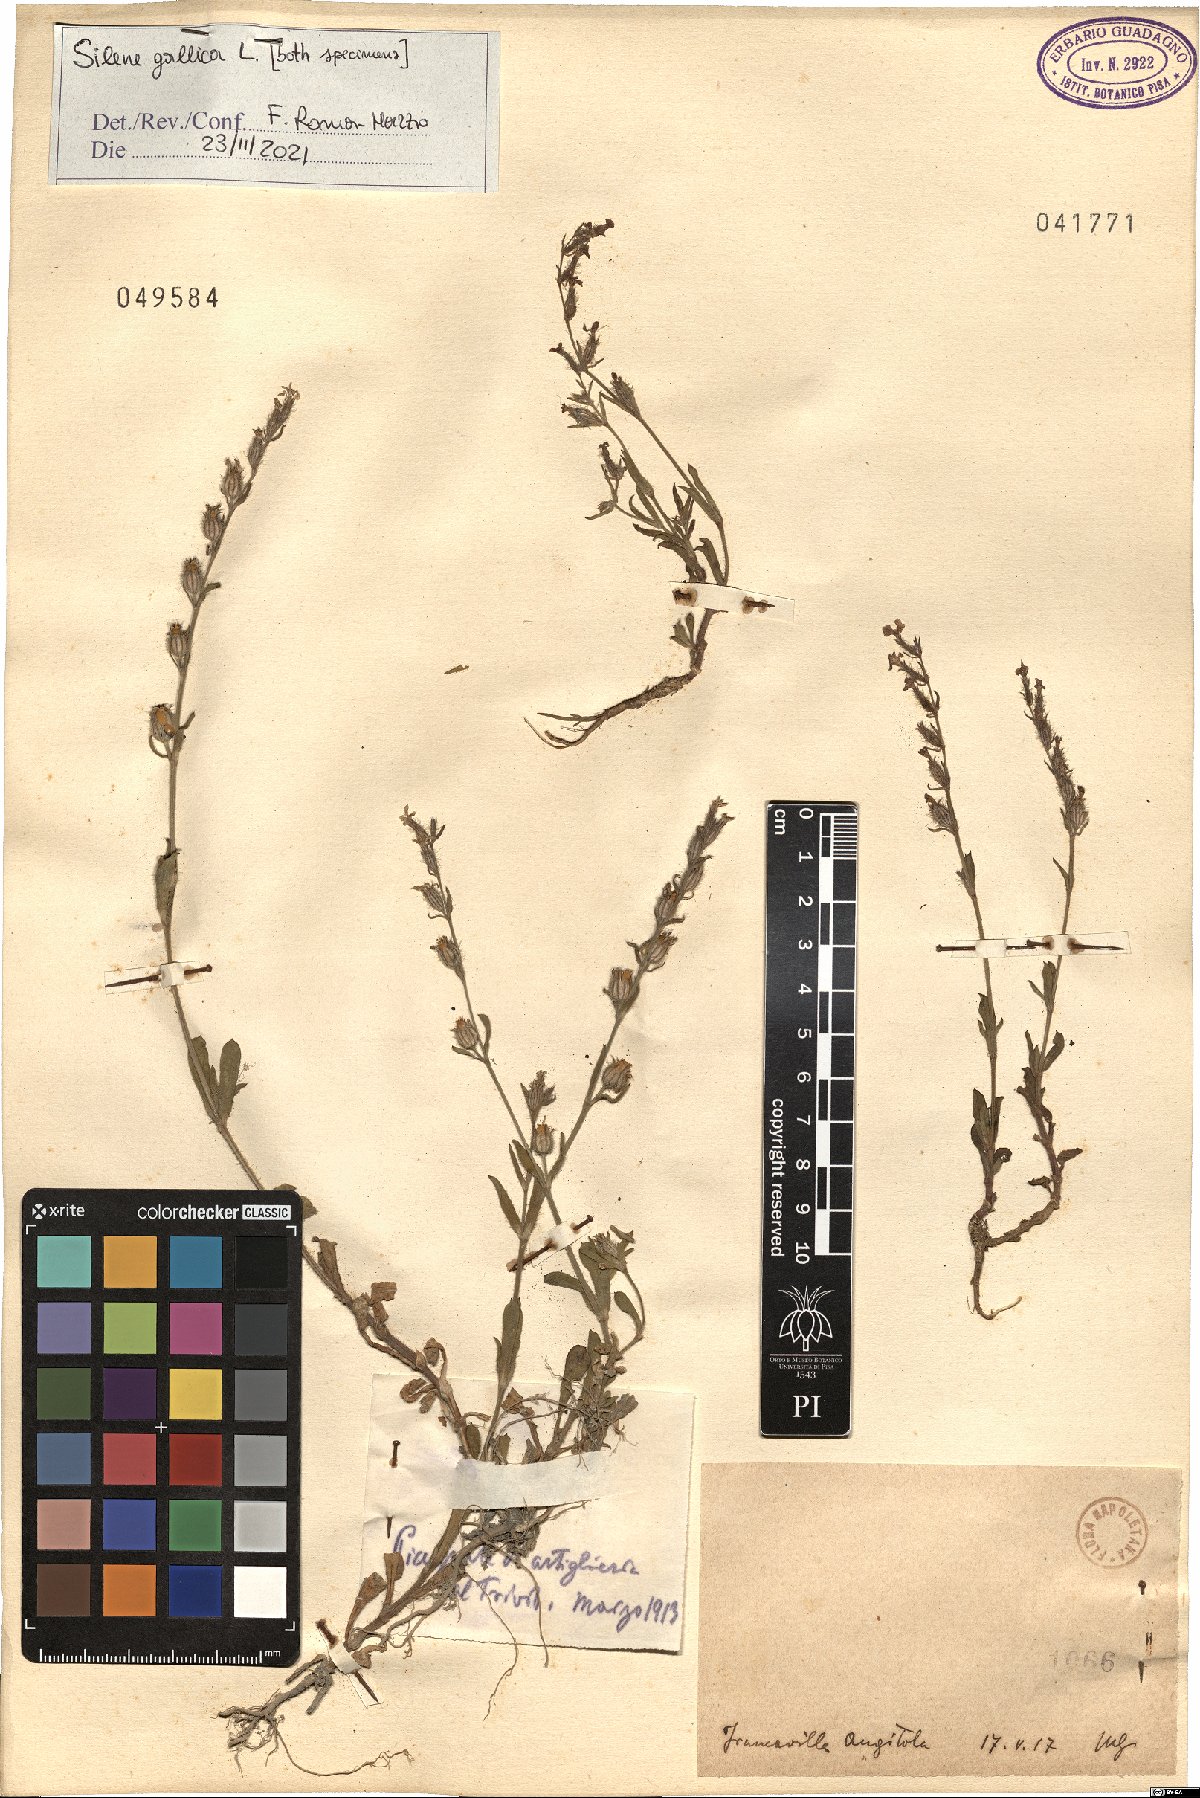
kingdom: Plantae
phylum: Tracheophyta
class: Magnoliopsida
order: Caryophyllales
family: Caryophyllaceae
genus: Silene
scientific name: Silene gallica
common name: Small-flowered catchfly
